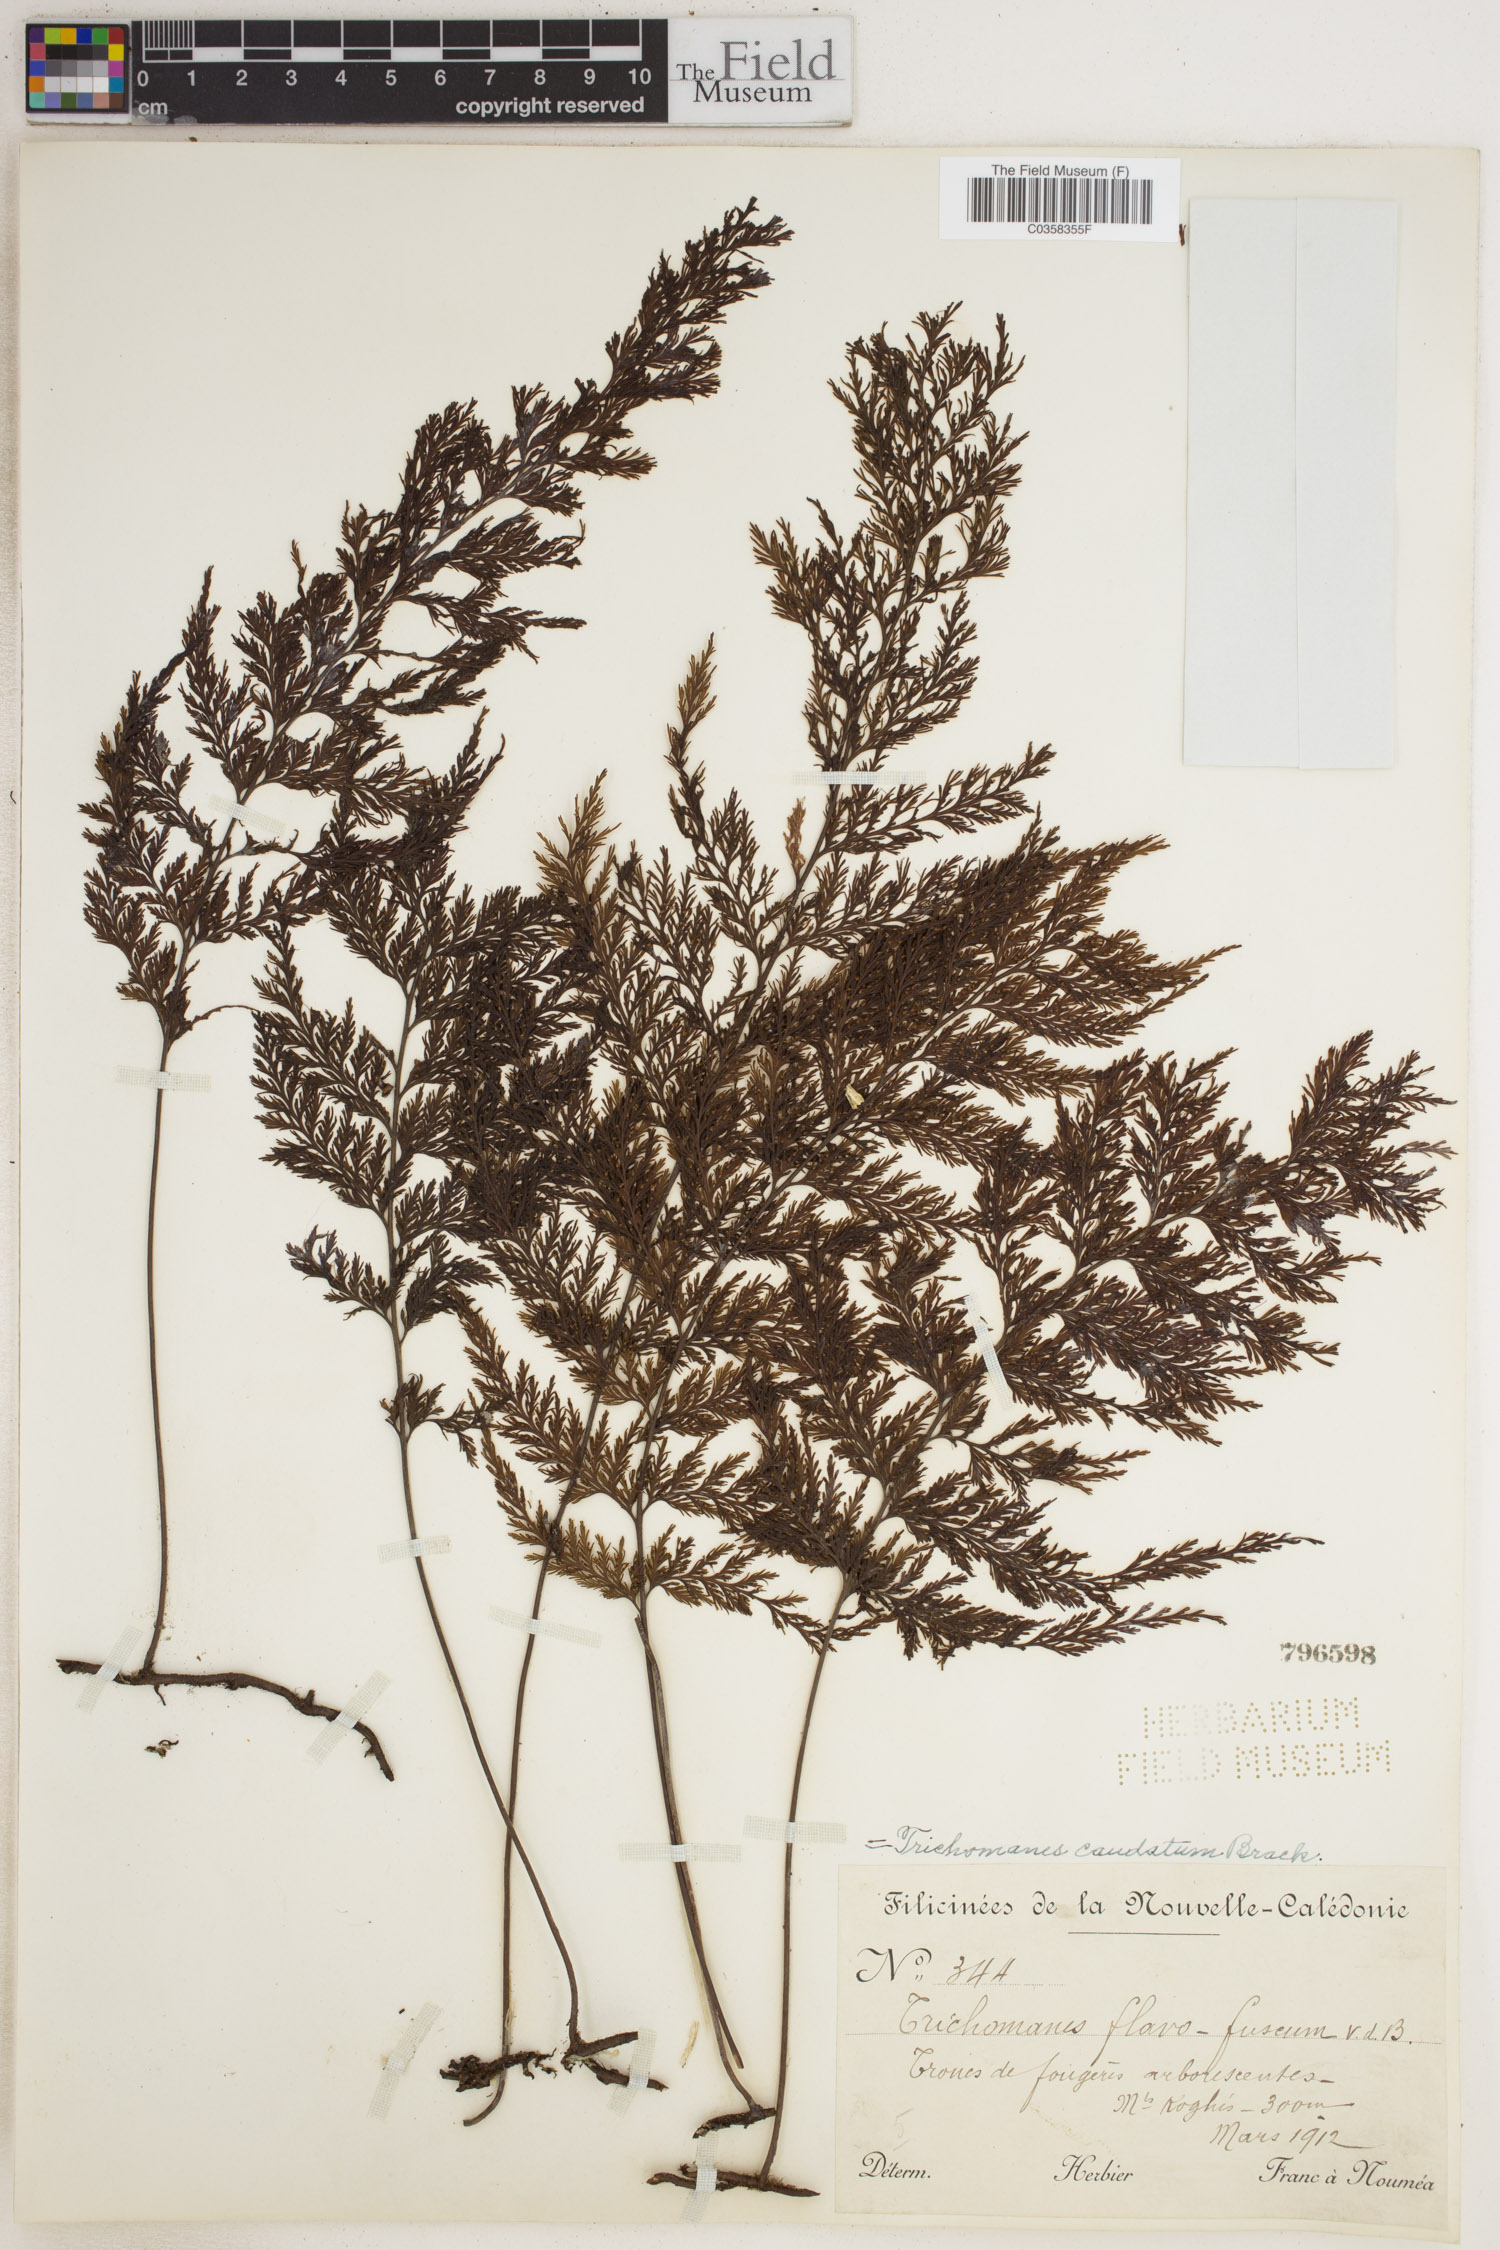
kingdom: Plantae
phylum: Tracheophyta
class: Polypodiopsida
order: Hymenophyllales
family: Hymenophyllaceae
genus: Abrodictyum
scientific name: Abrodictyum caudatum
